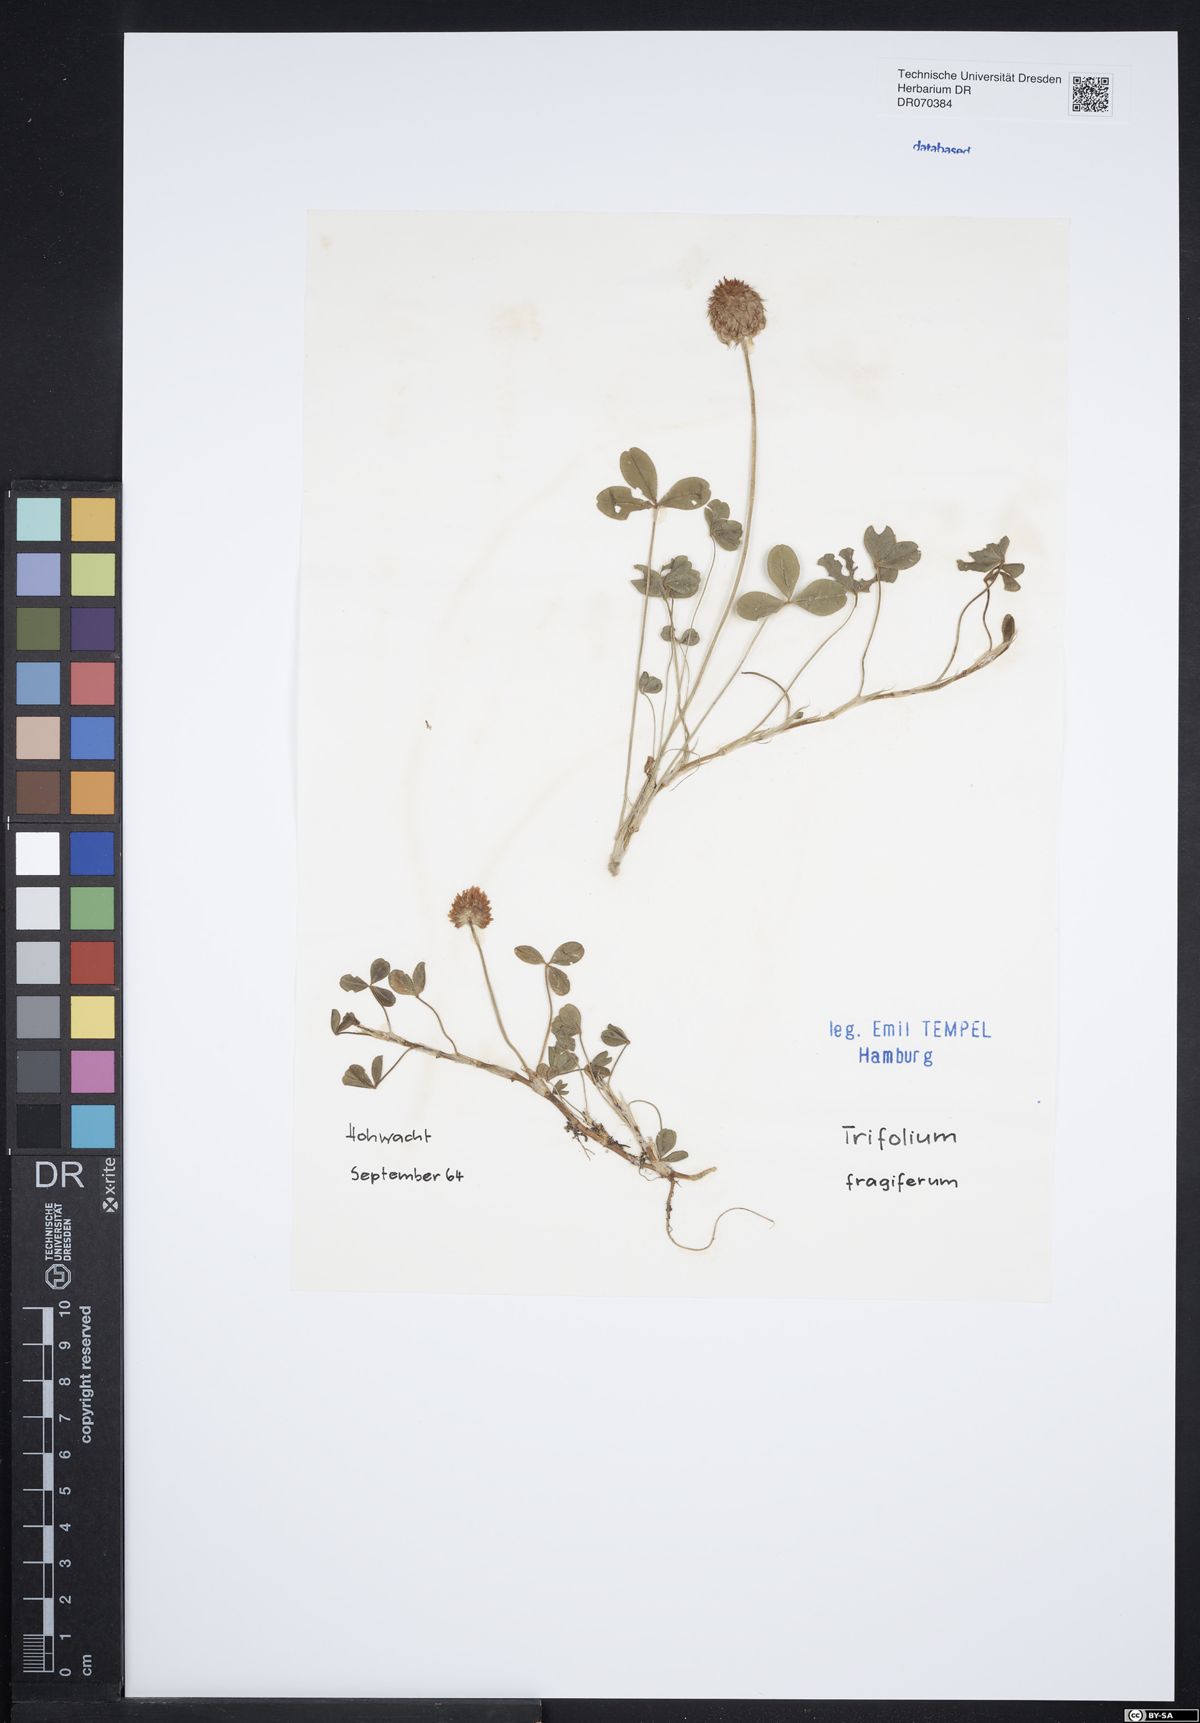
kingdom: Plantae
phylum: Tracheophyta
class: Magnoliopsida
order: Fabales
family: Fabaceae
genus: Trifolium
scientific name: Trifolium fragiferum
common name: Strawberry clover
